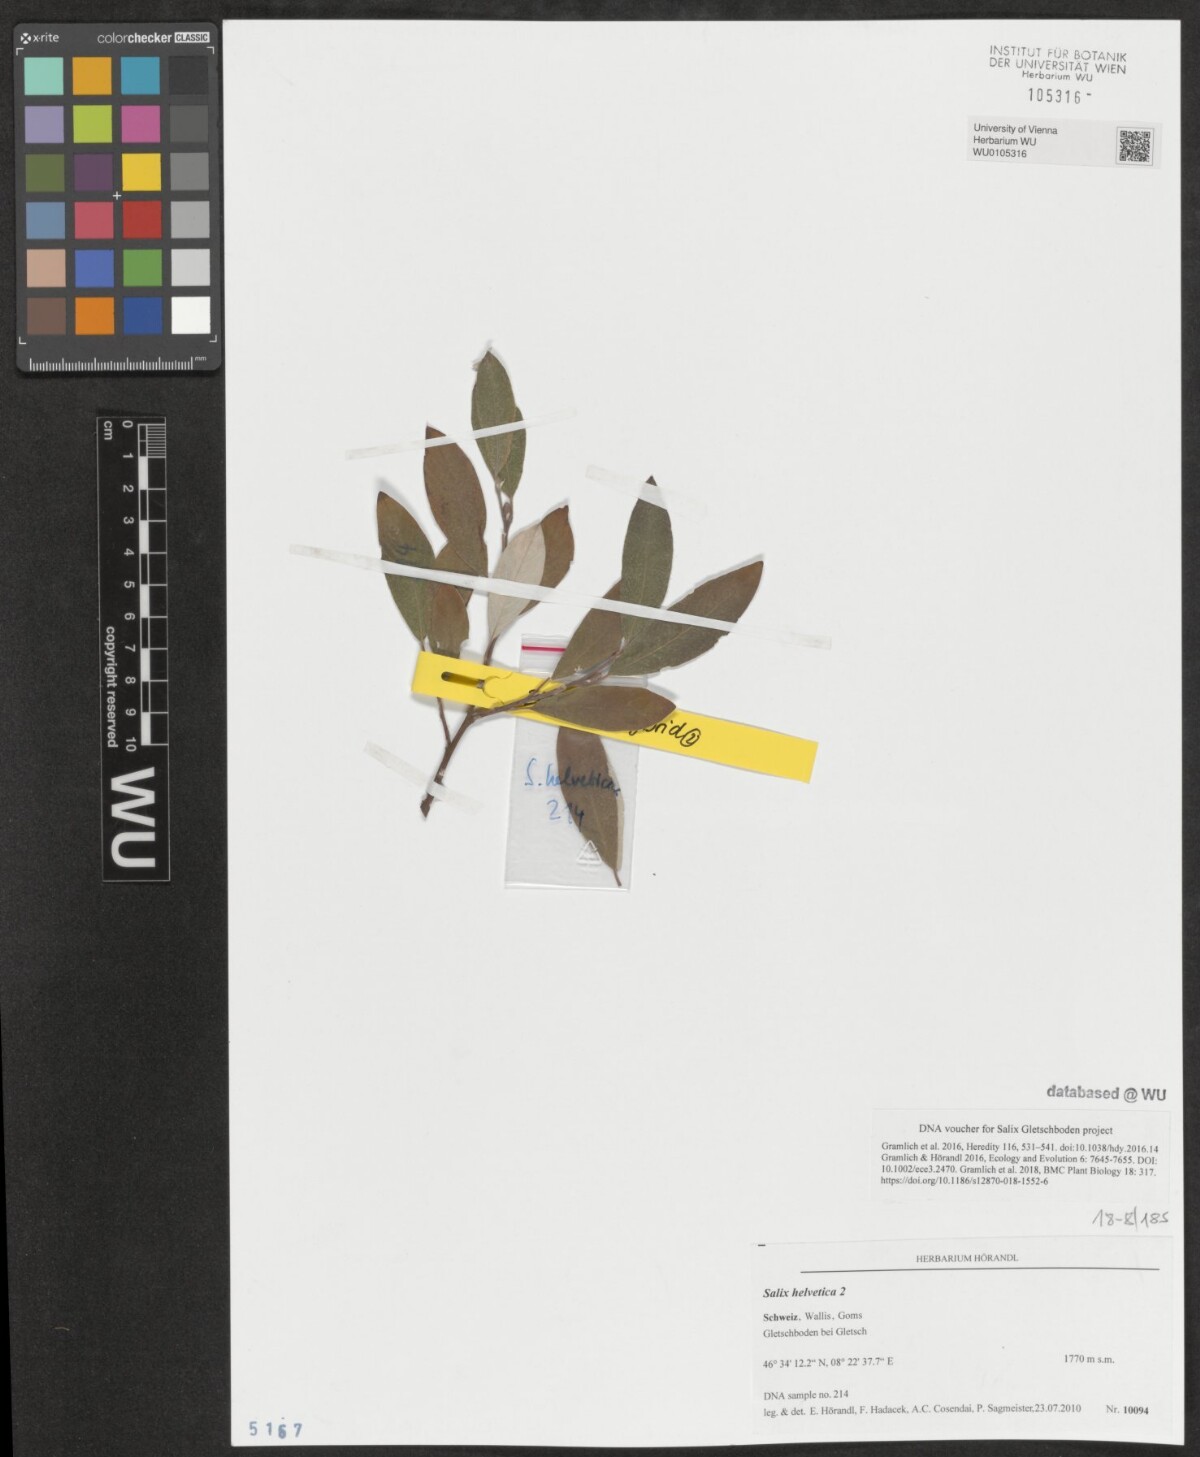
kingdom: Plantae
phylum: Tracheophyta
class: Magnoliopsida
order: Malpighiales
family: Salicaceae
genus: Salix
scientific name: Salix helvetica
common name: Swiss willow
